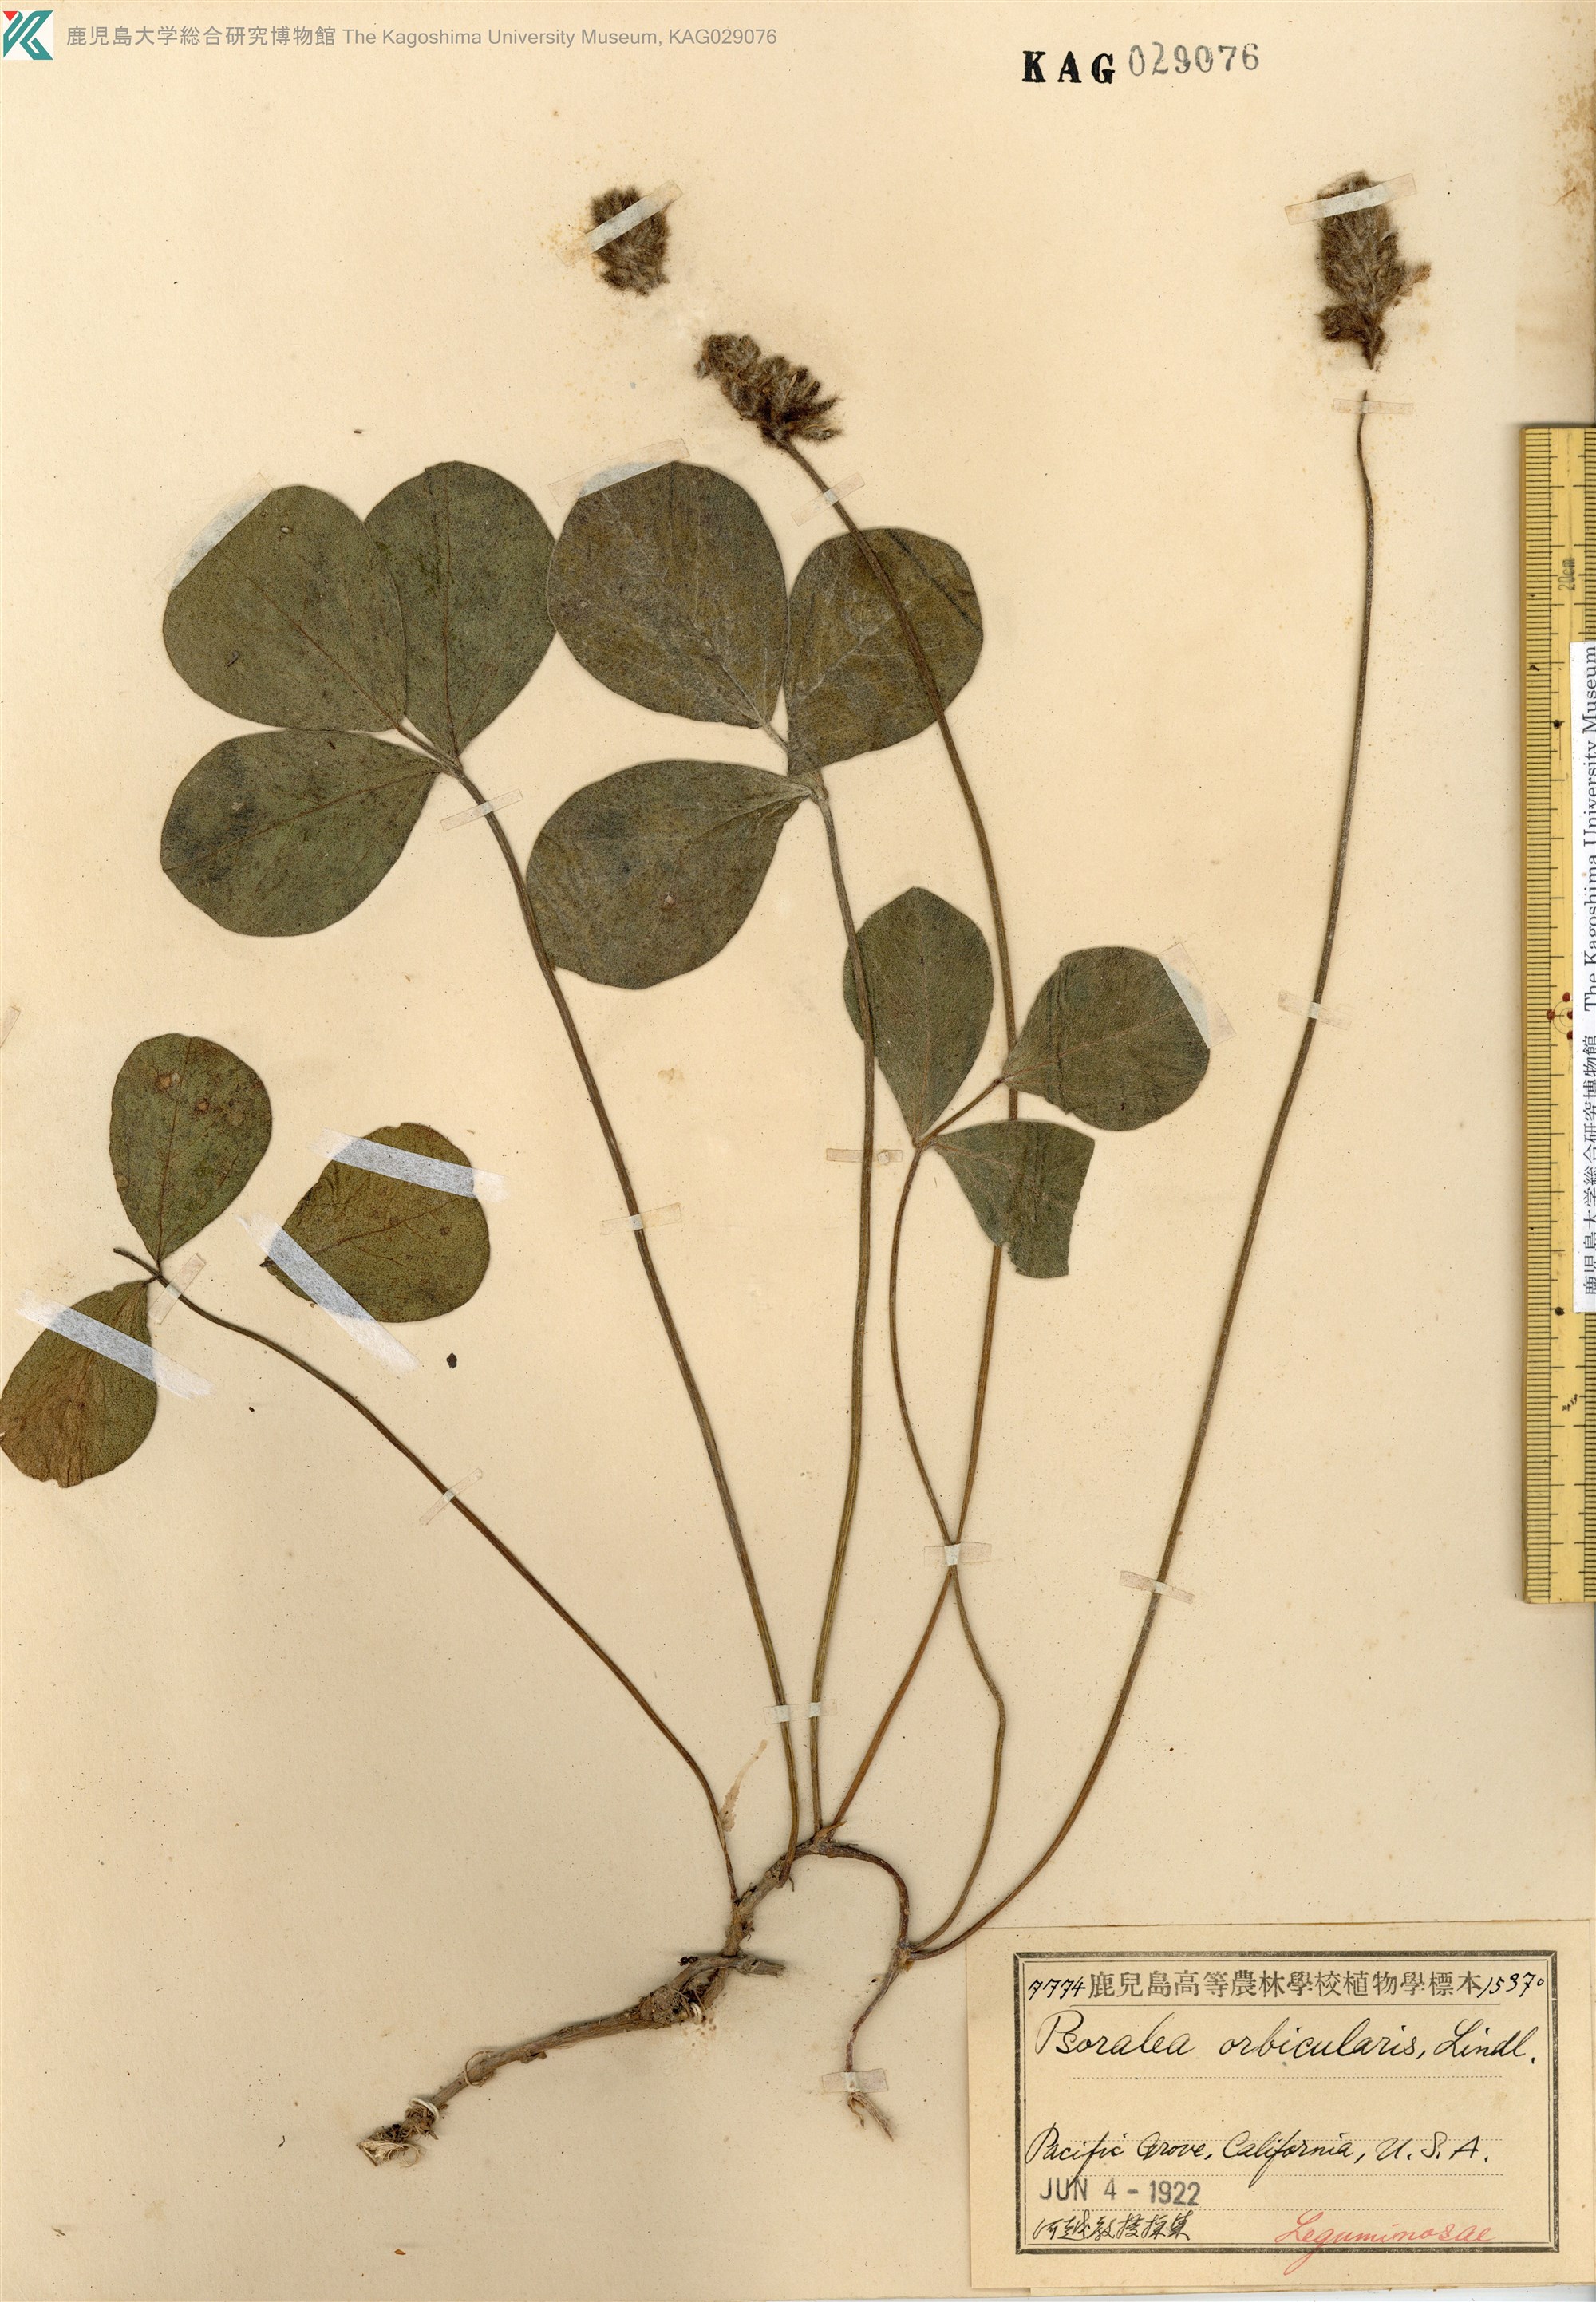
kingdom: Plantae
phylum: Tracheophyta
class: Magnoliopsida
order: Fabales
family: Fabaceae
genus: Hoita
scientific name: Hoita orbicularis
